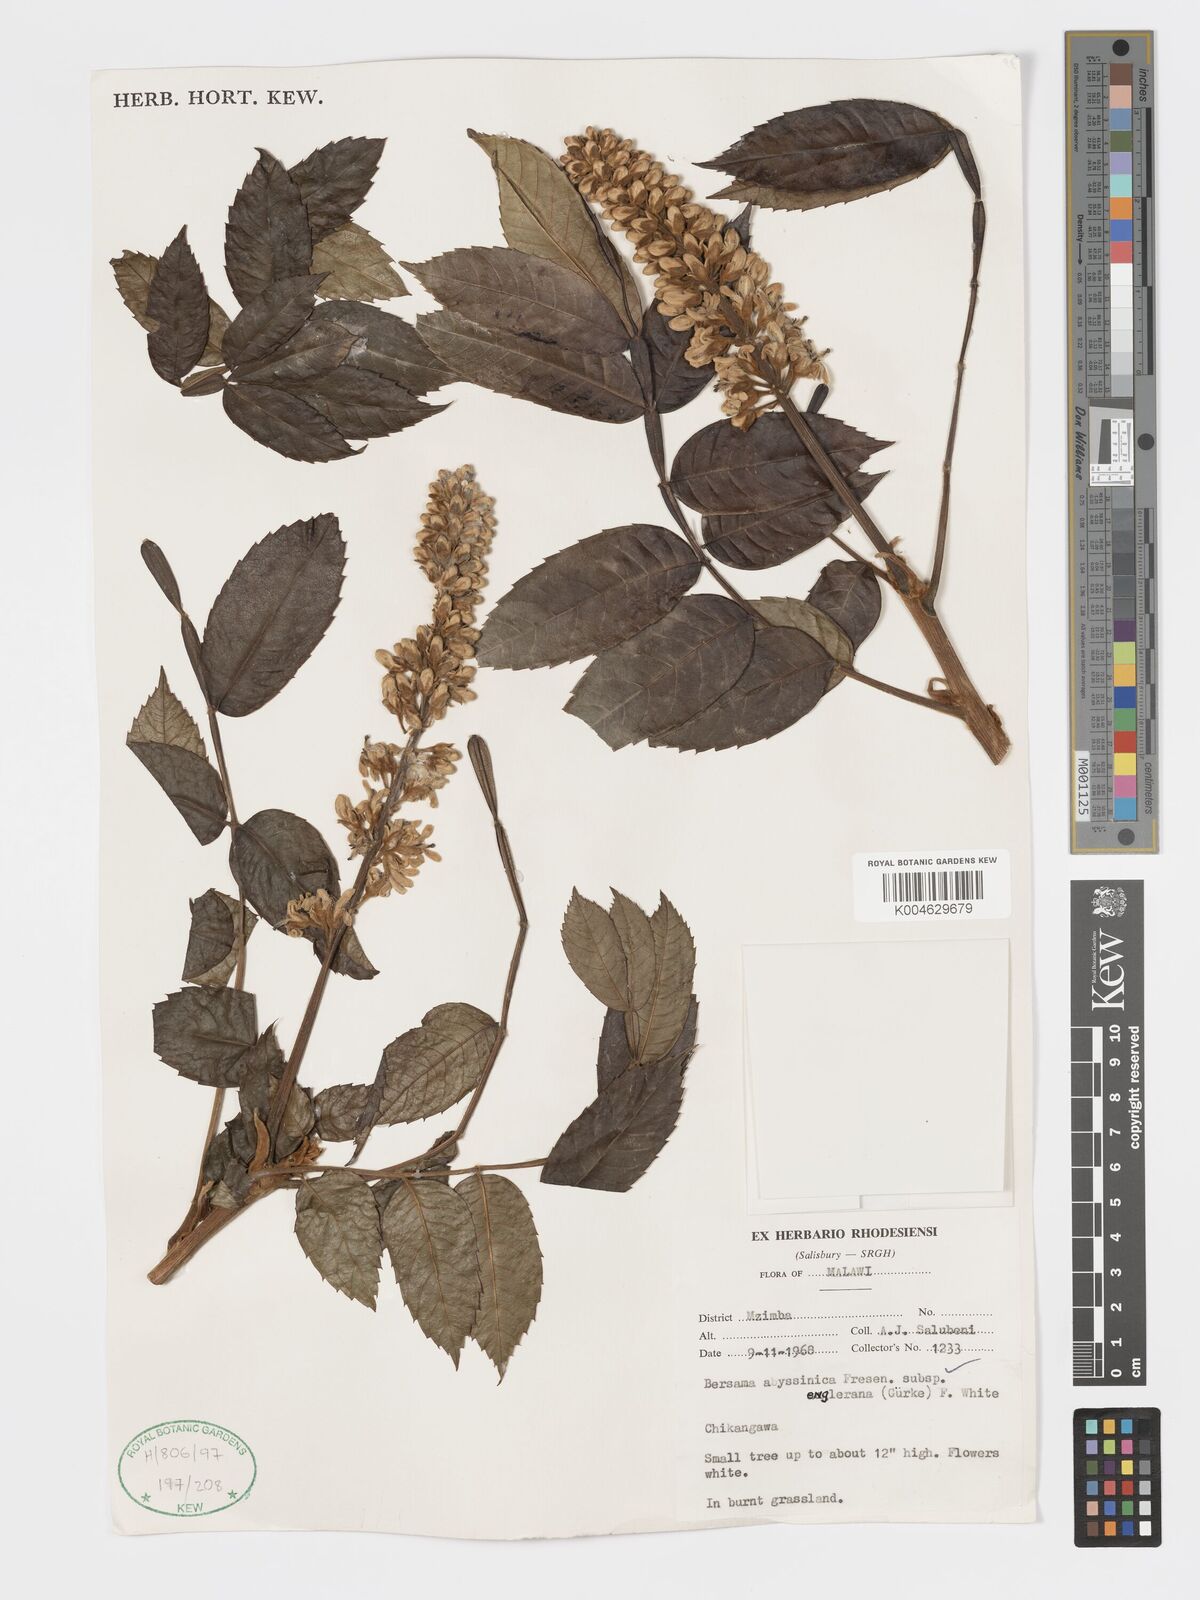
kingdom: Plantae
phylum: Tracheophyta
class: Magnoliopsida
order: Geraniales
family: Melianthaceae
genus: Bersama
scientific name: Bersama abyssinica
